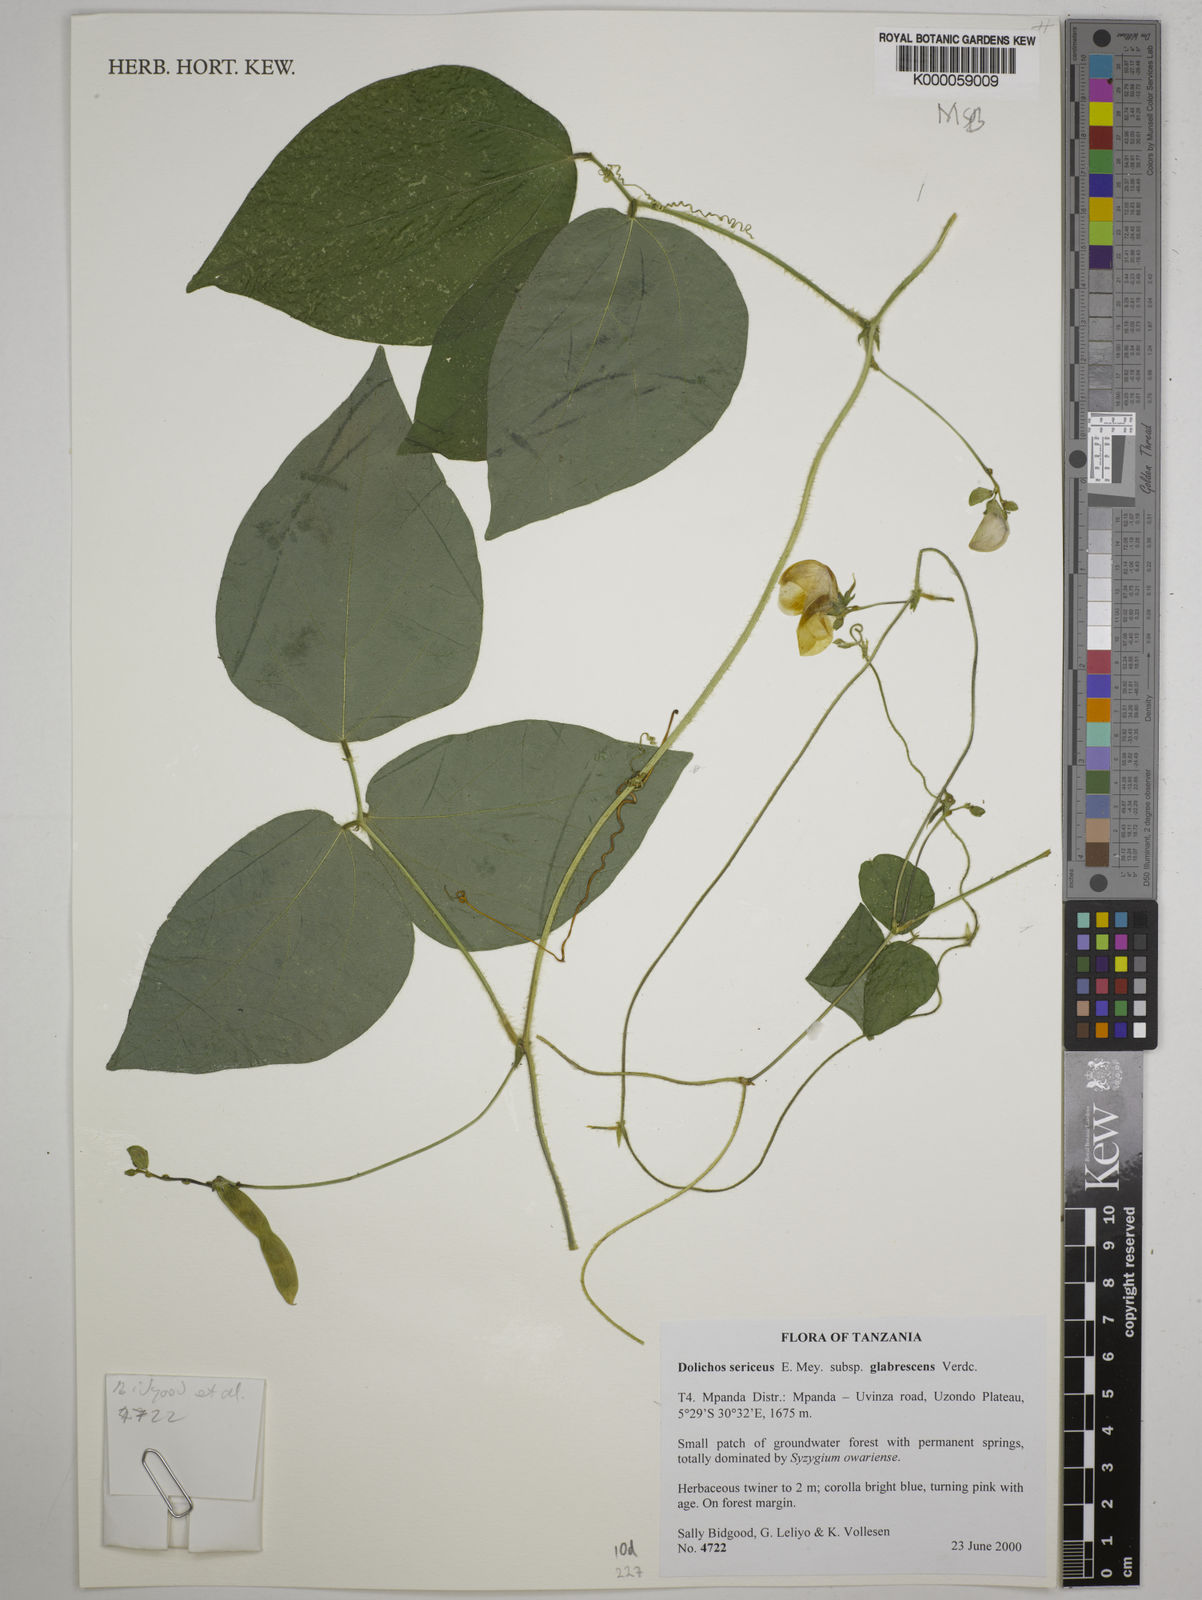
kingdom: Plantae
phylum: Tracheophyta
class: Magnoliopsida
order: Fabales
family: Fabaceae
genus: Dolichos
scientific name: Dolichos sericeus
